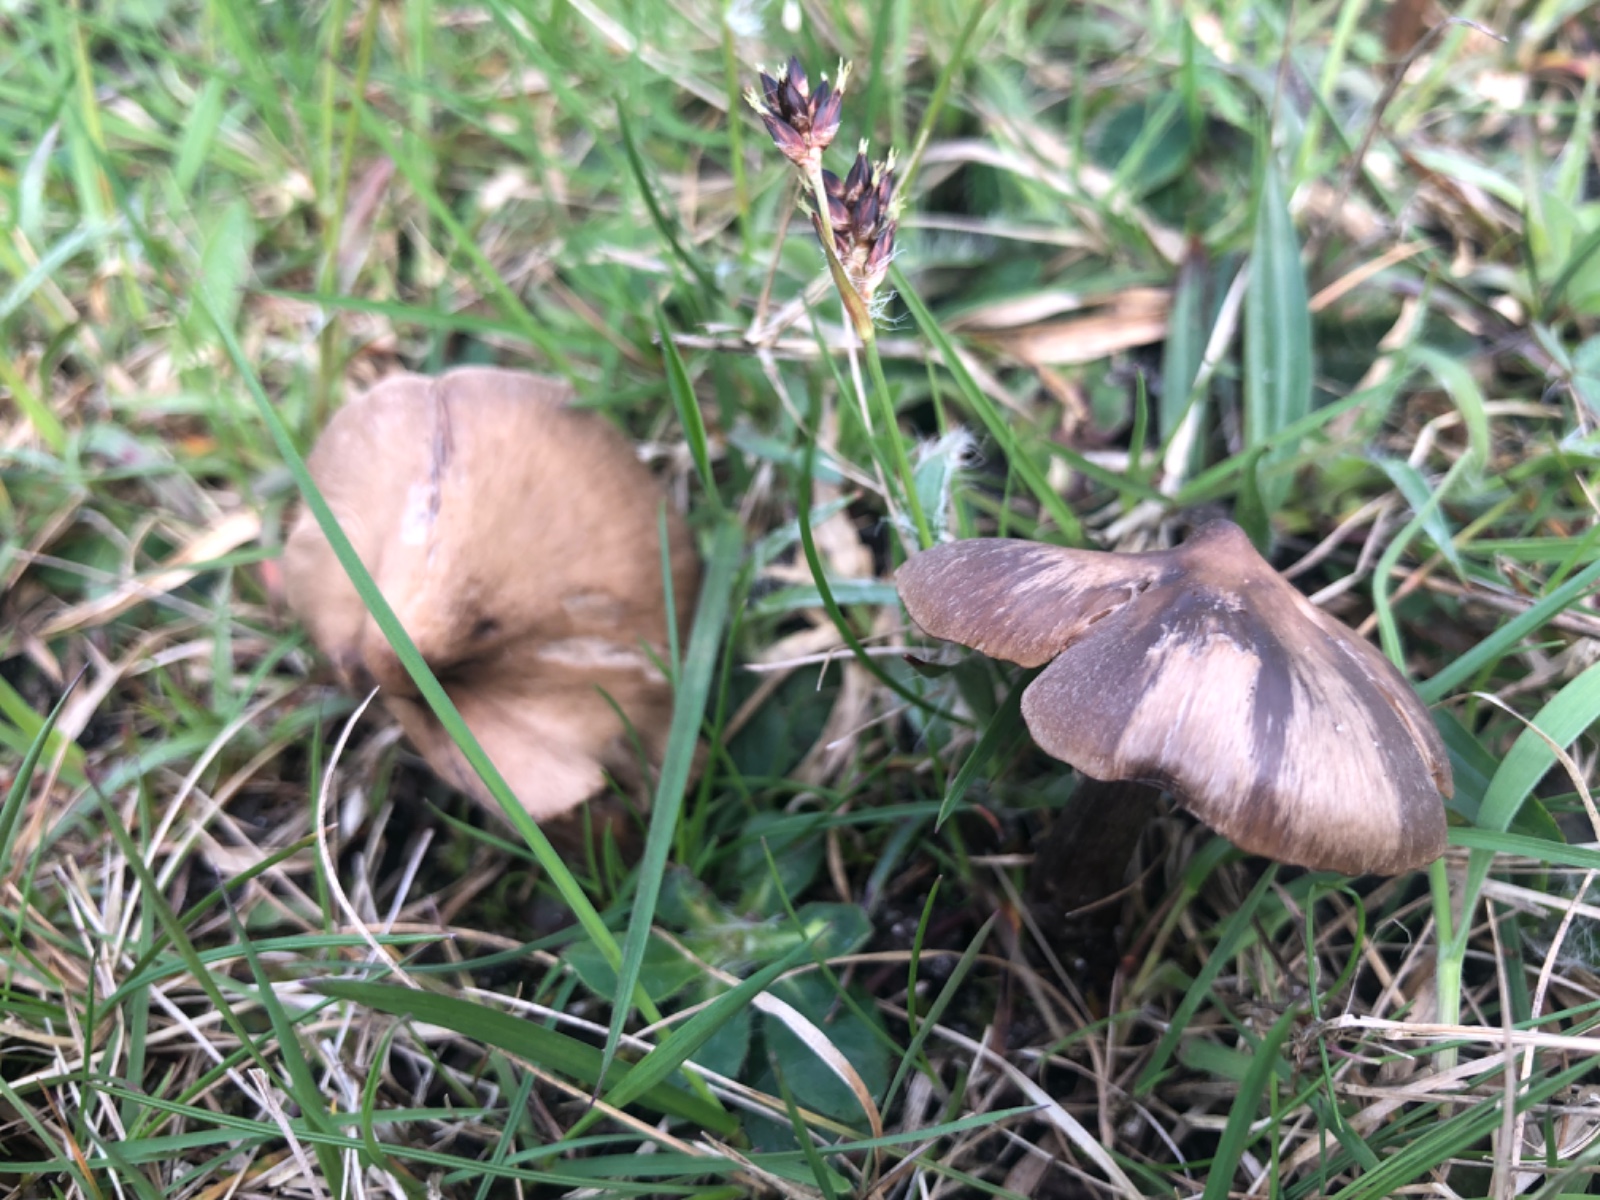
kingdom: Fungi
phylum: Basidiomycota
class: Agaricomycetes
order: Agaricales
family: Entolomataceae
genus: Entoloma
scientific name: Entoloma
